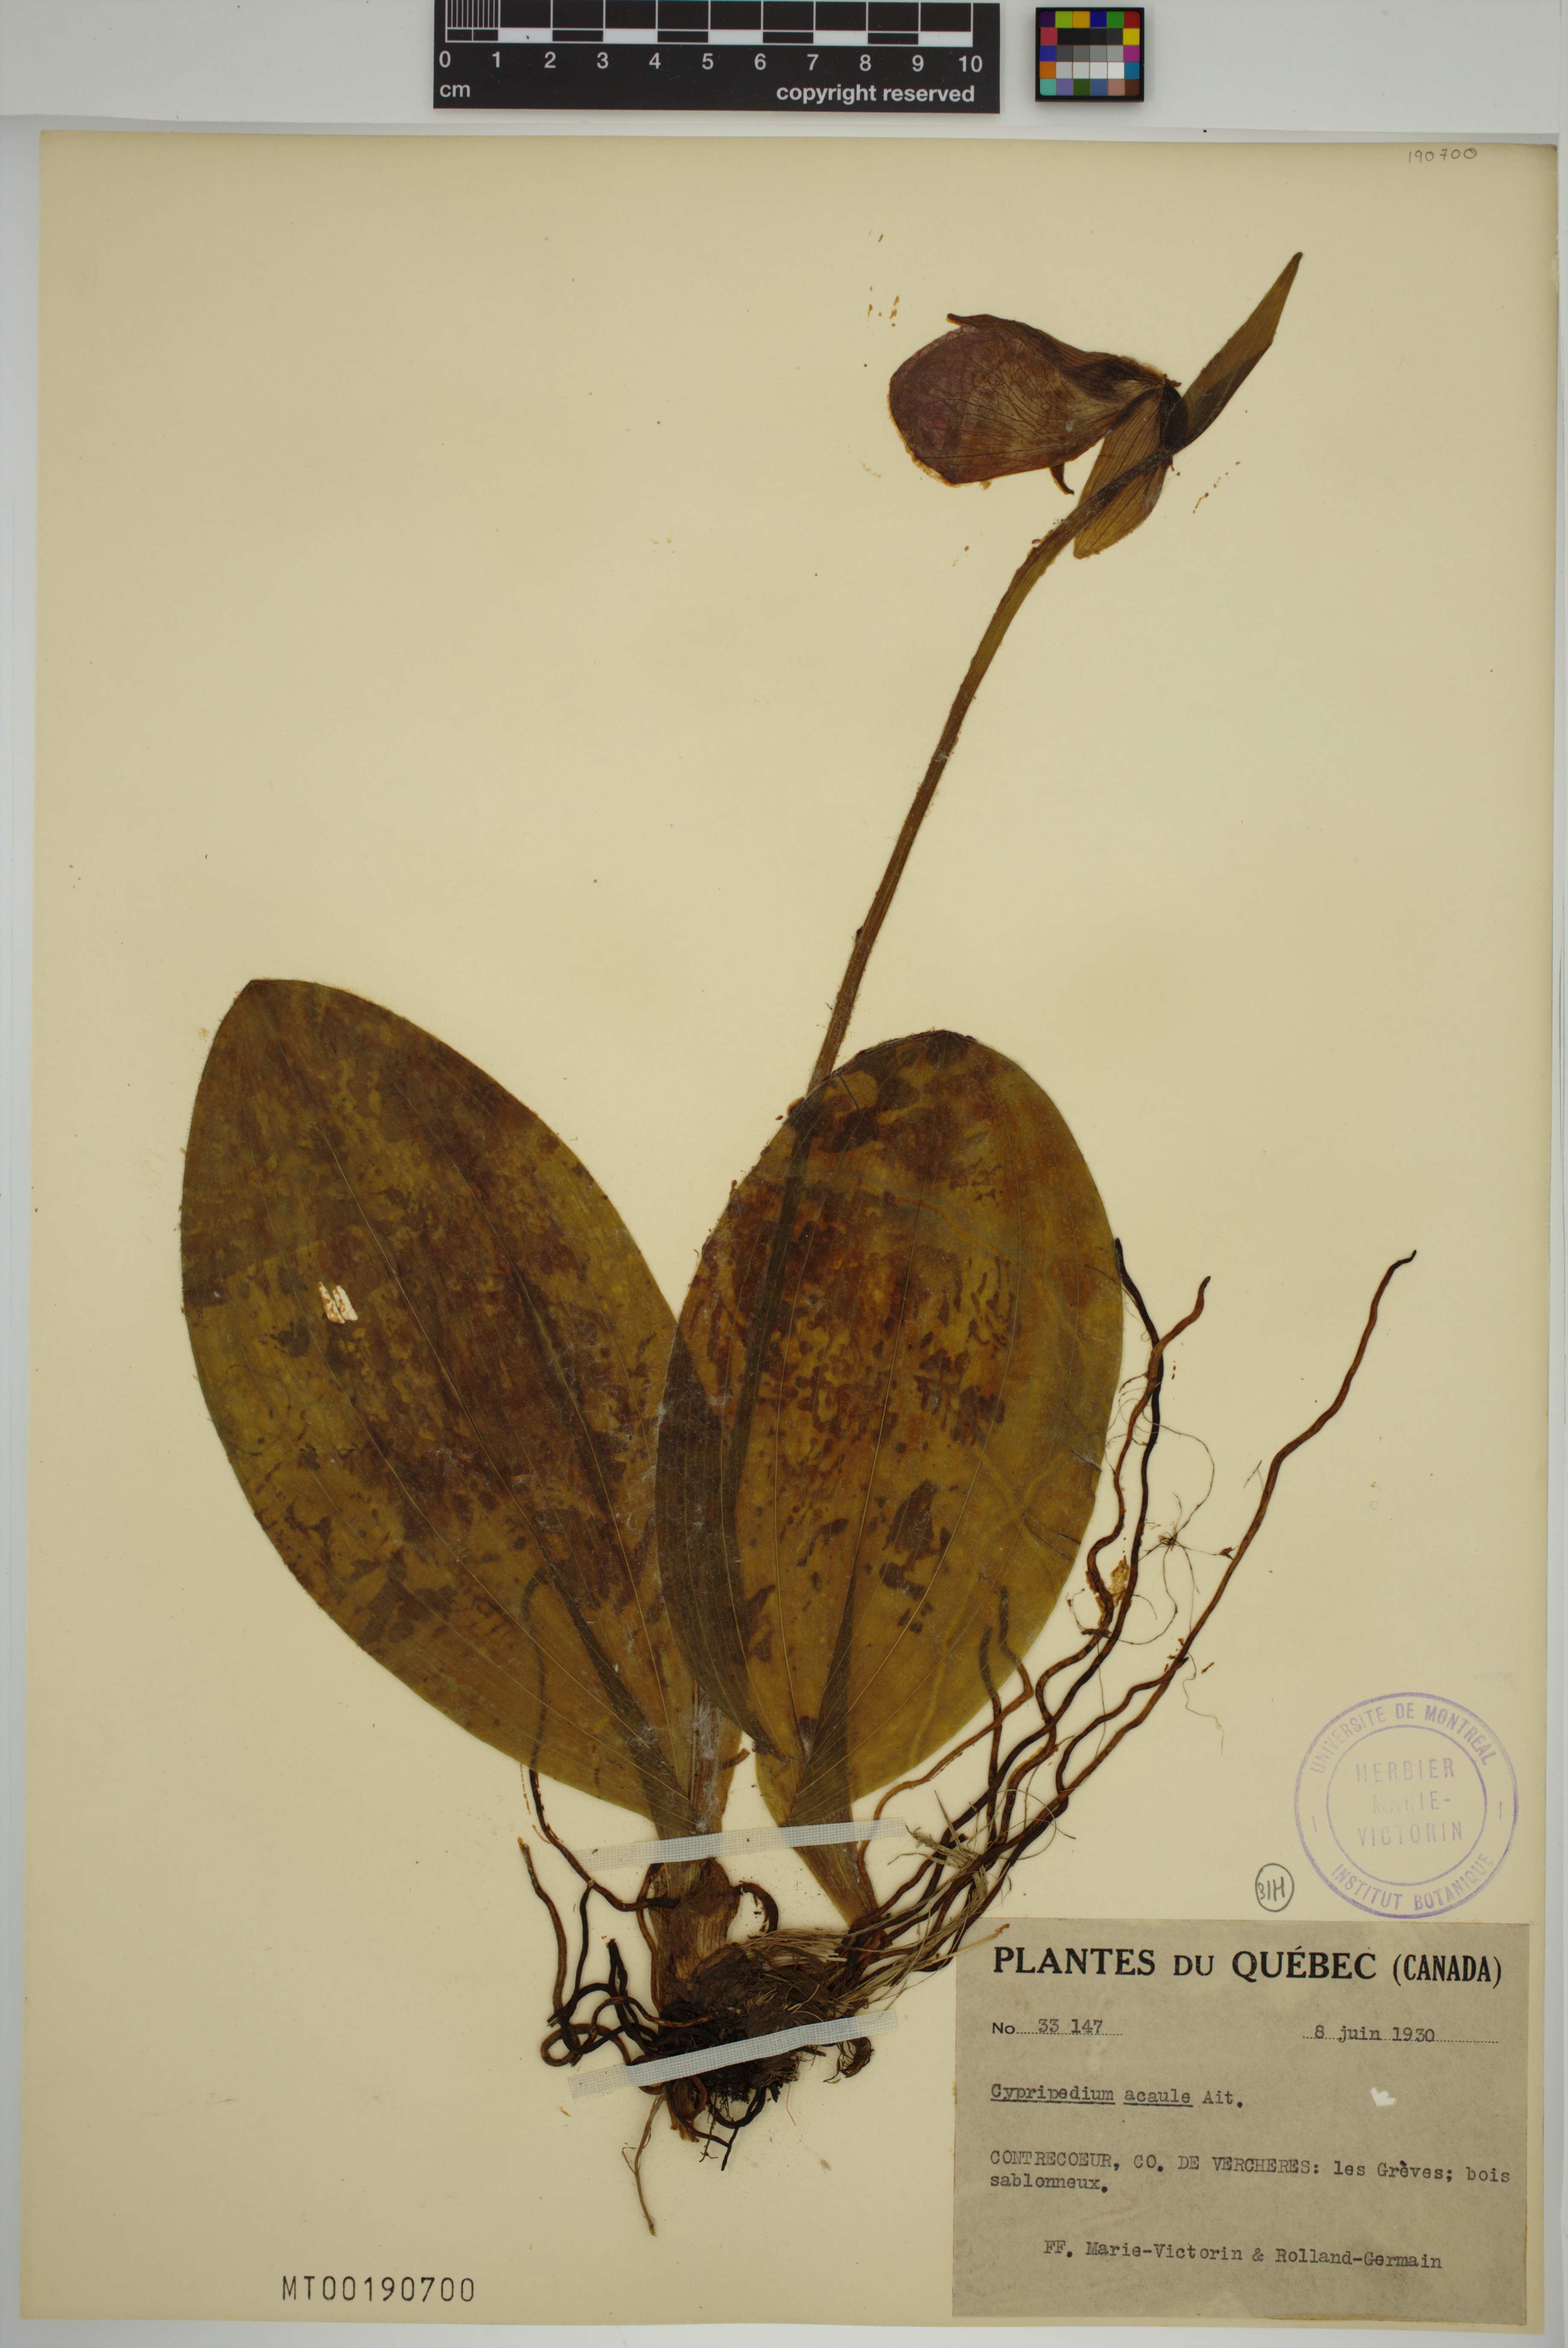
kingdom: Plantae
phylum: Tracheophyta
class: Liliopsida
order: Asparagales
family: Orchidaceae
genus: Cypripedium
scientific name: Cypripedium acaule
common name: Pink lady's-slipper
